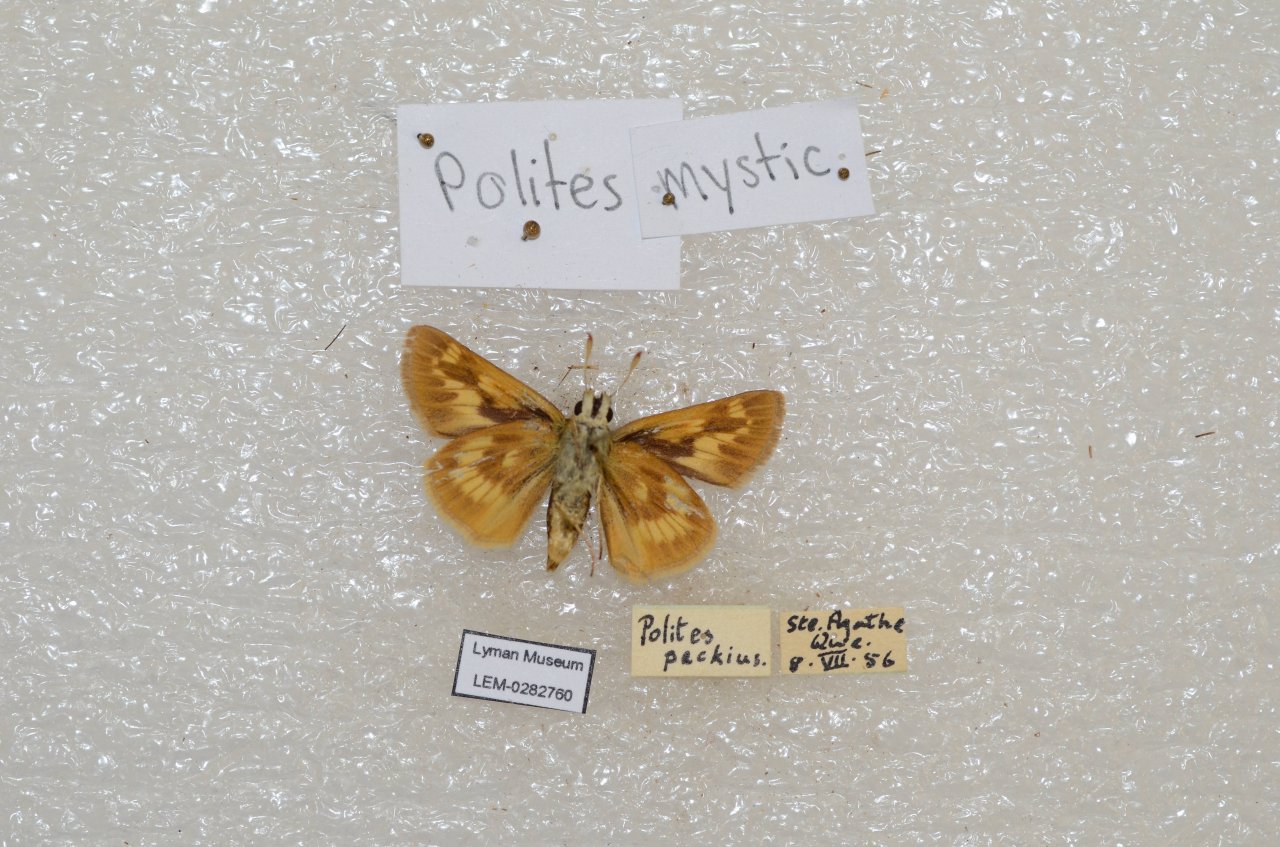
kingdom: Animalia
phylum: Arthropoda
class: Insecta
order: Lepidoptera
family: Hesperiidae
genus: Polites
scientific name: Polites
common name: Long Dash Skipper
